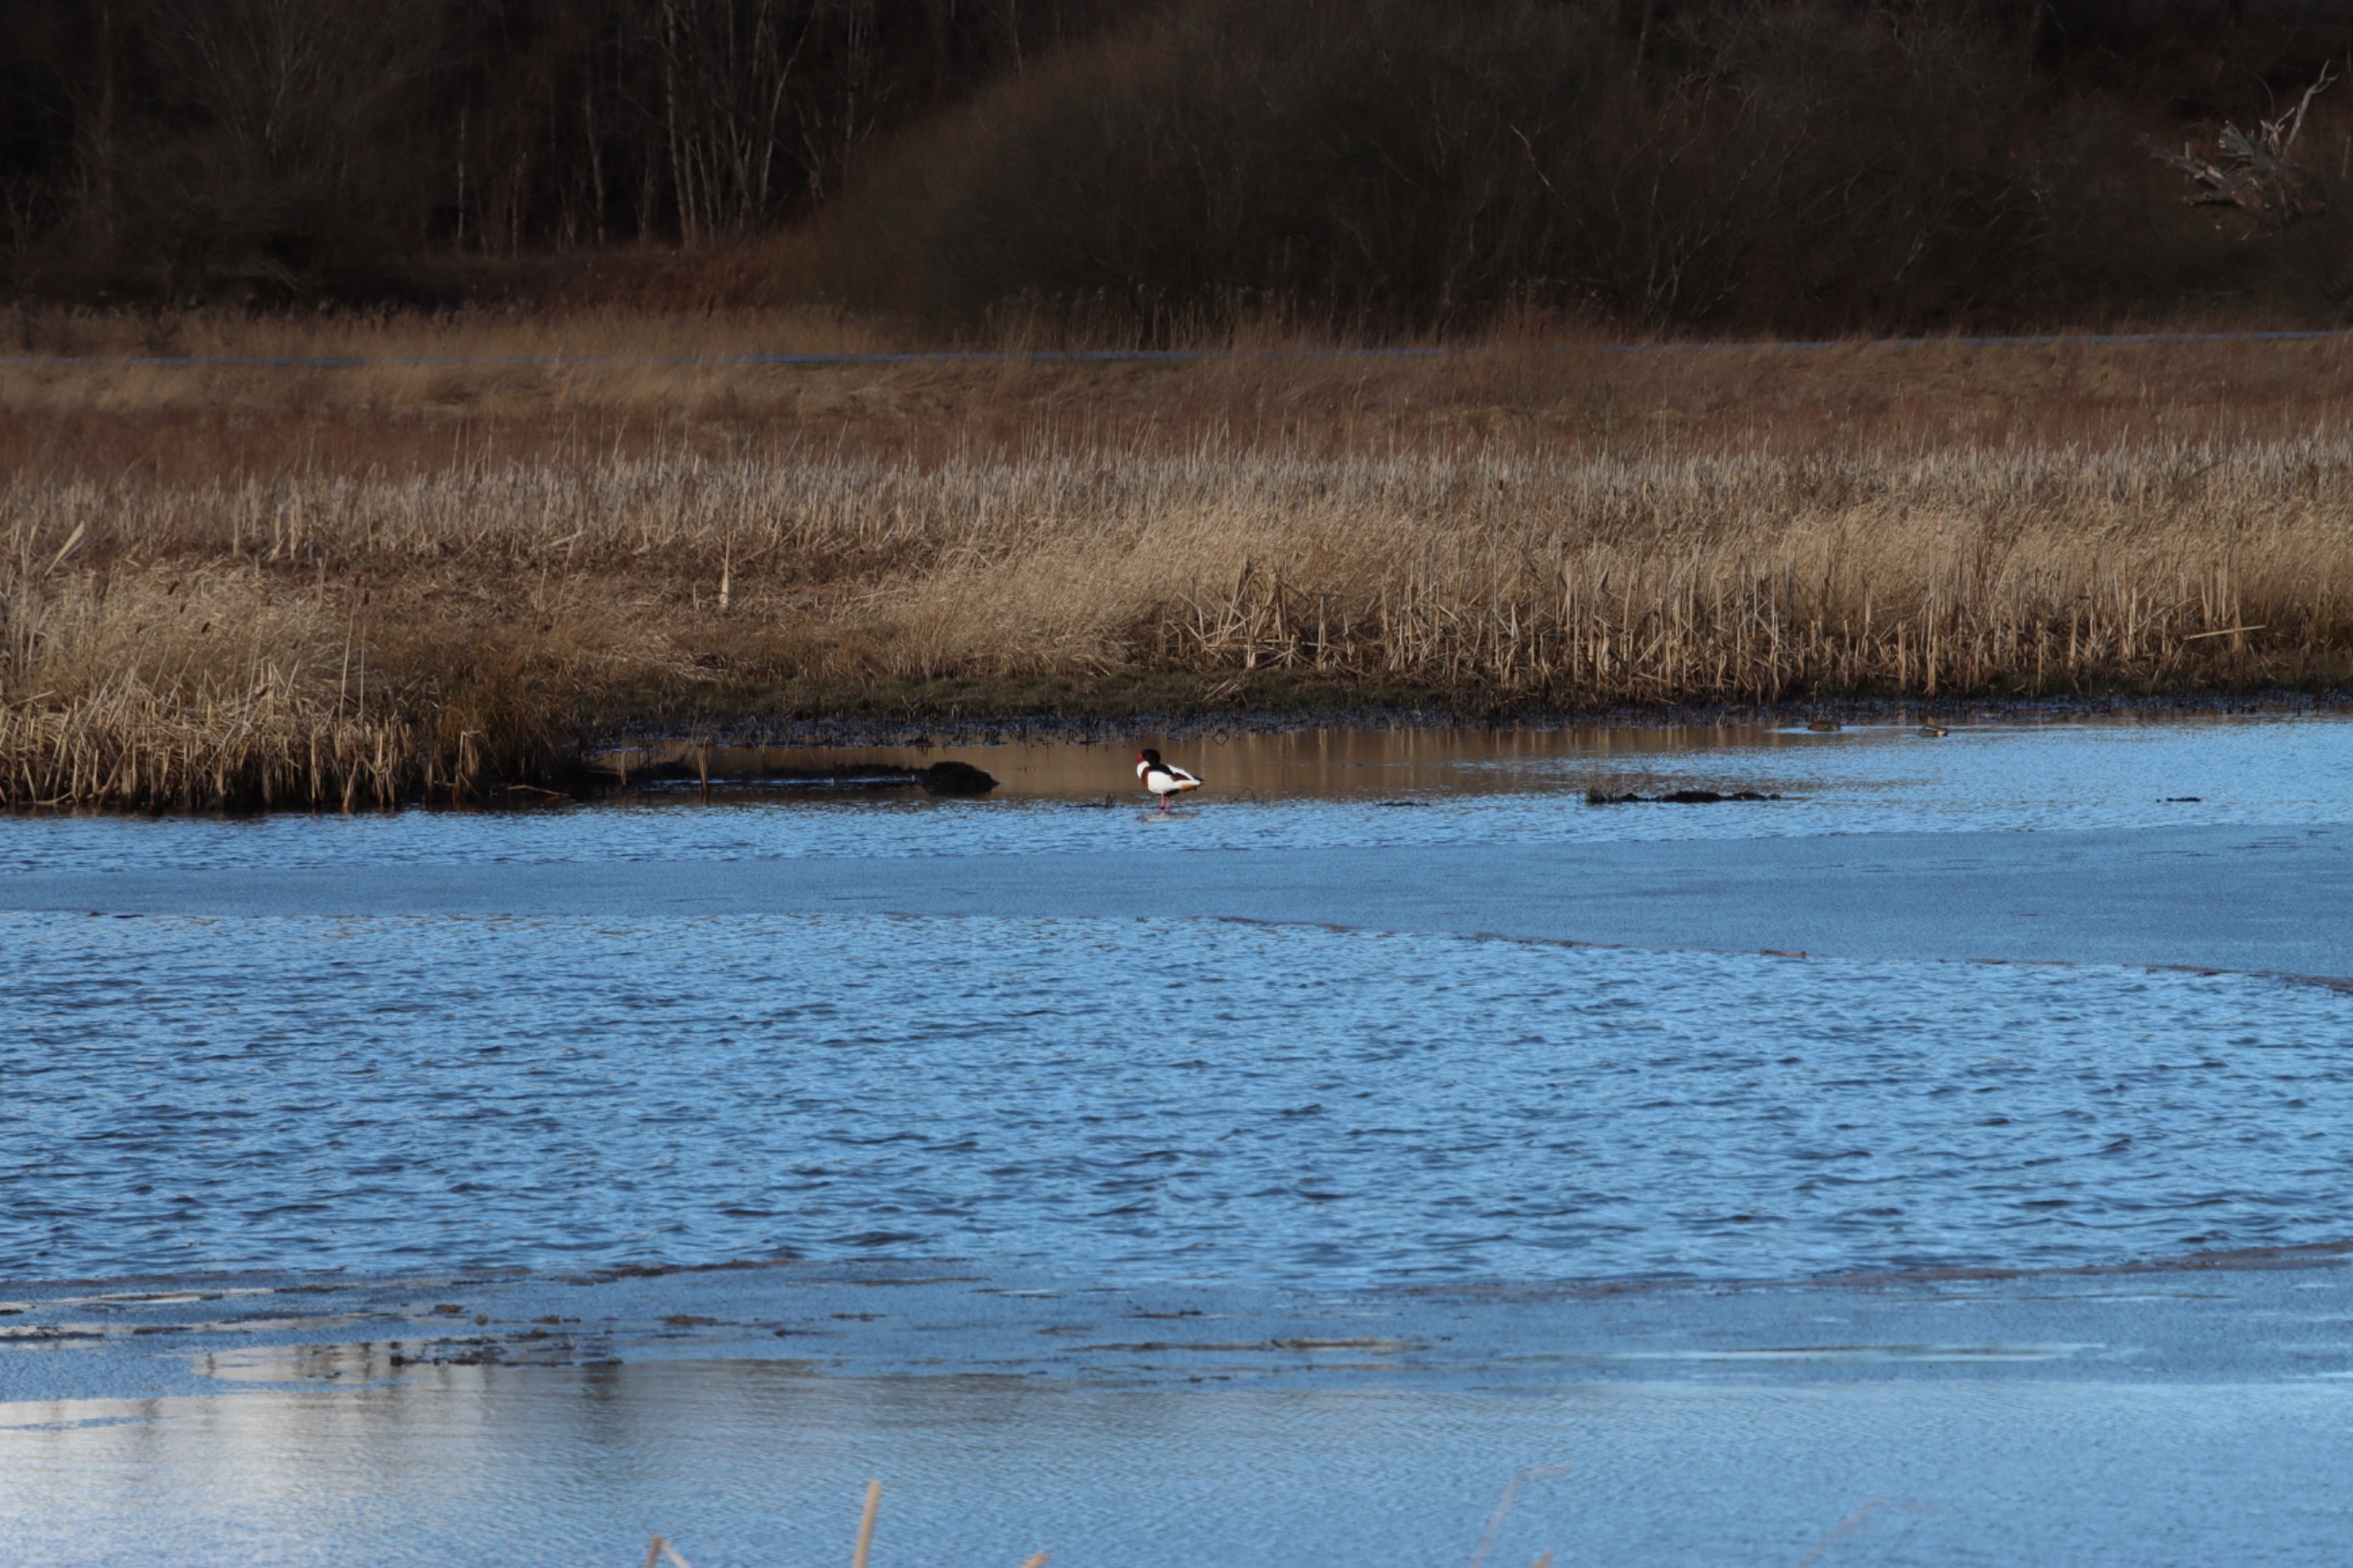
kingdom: Animalia
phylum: Chordata
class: Aves
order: Anseriformes
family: Anatidae
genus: Tadorna
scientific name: Tadorna tadorna
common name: Gravand
